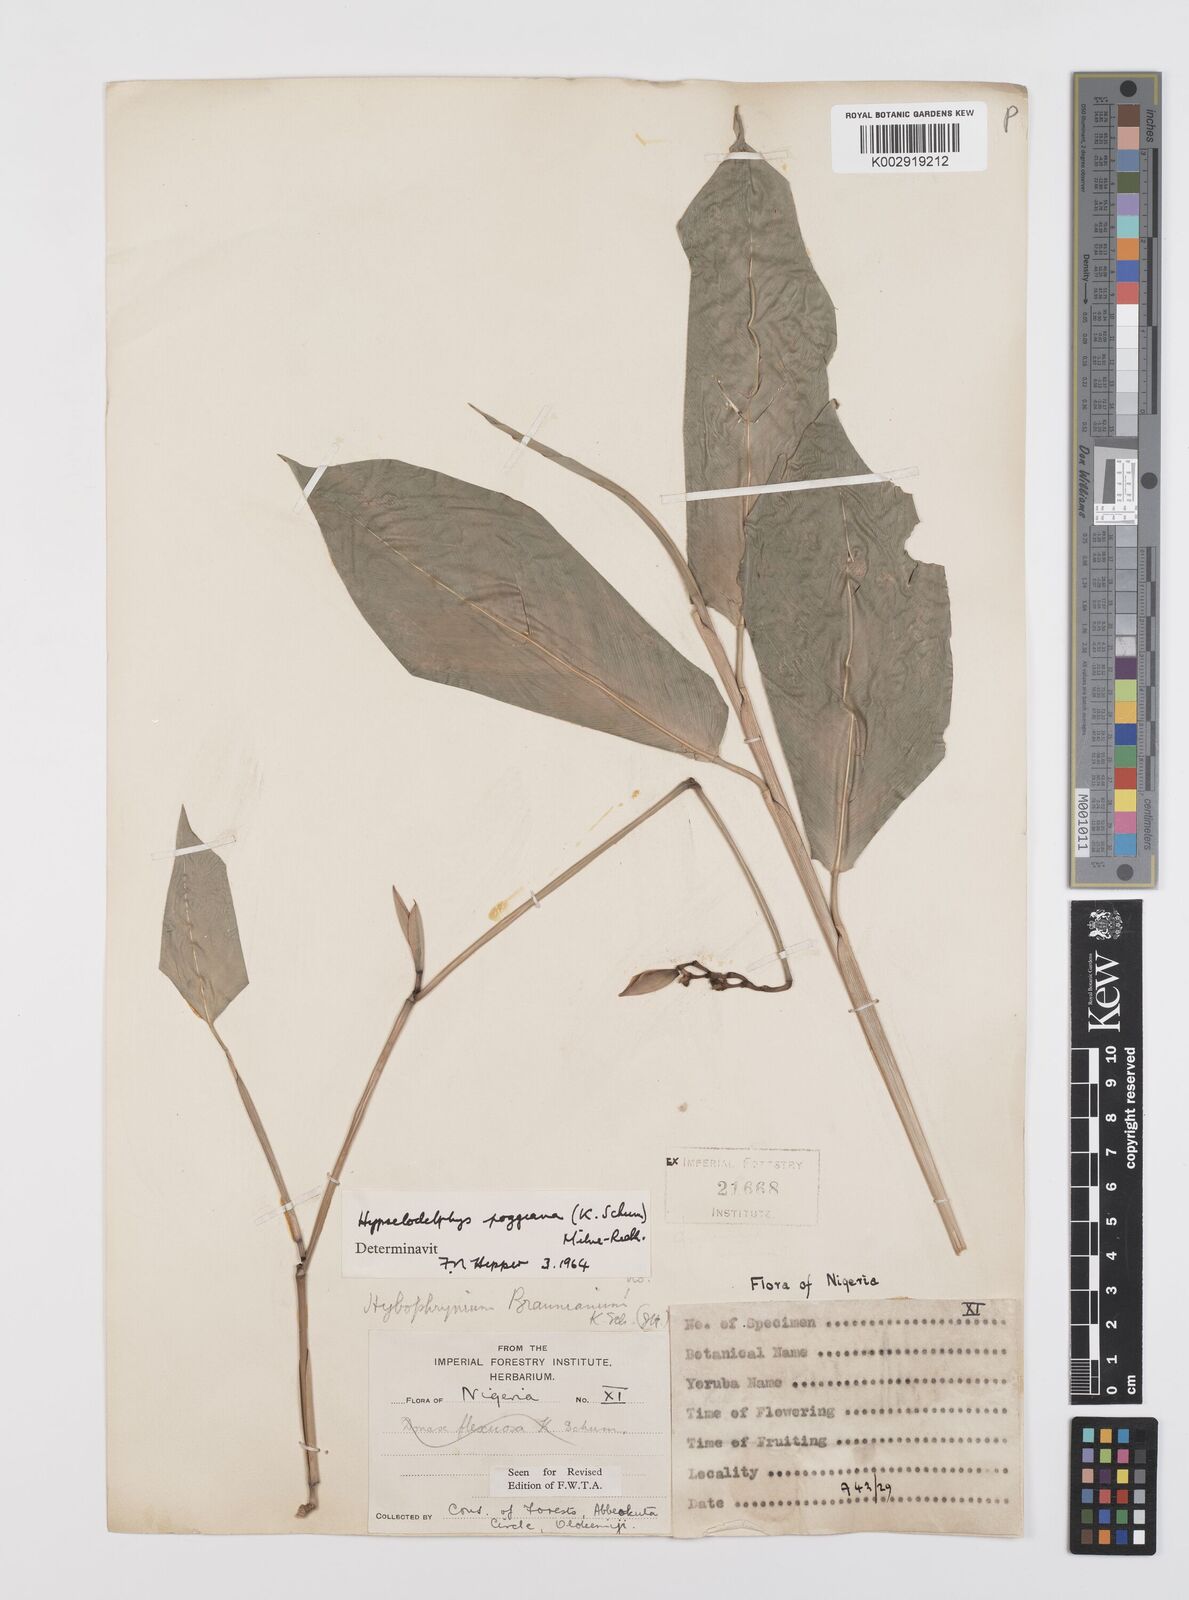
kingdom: Plantae
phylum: Tracheophyta
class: Liliopsida
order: Zingiberales
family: Marantaceae
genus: Hypselodelphys
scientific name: Hypselodelphys poggeana
